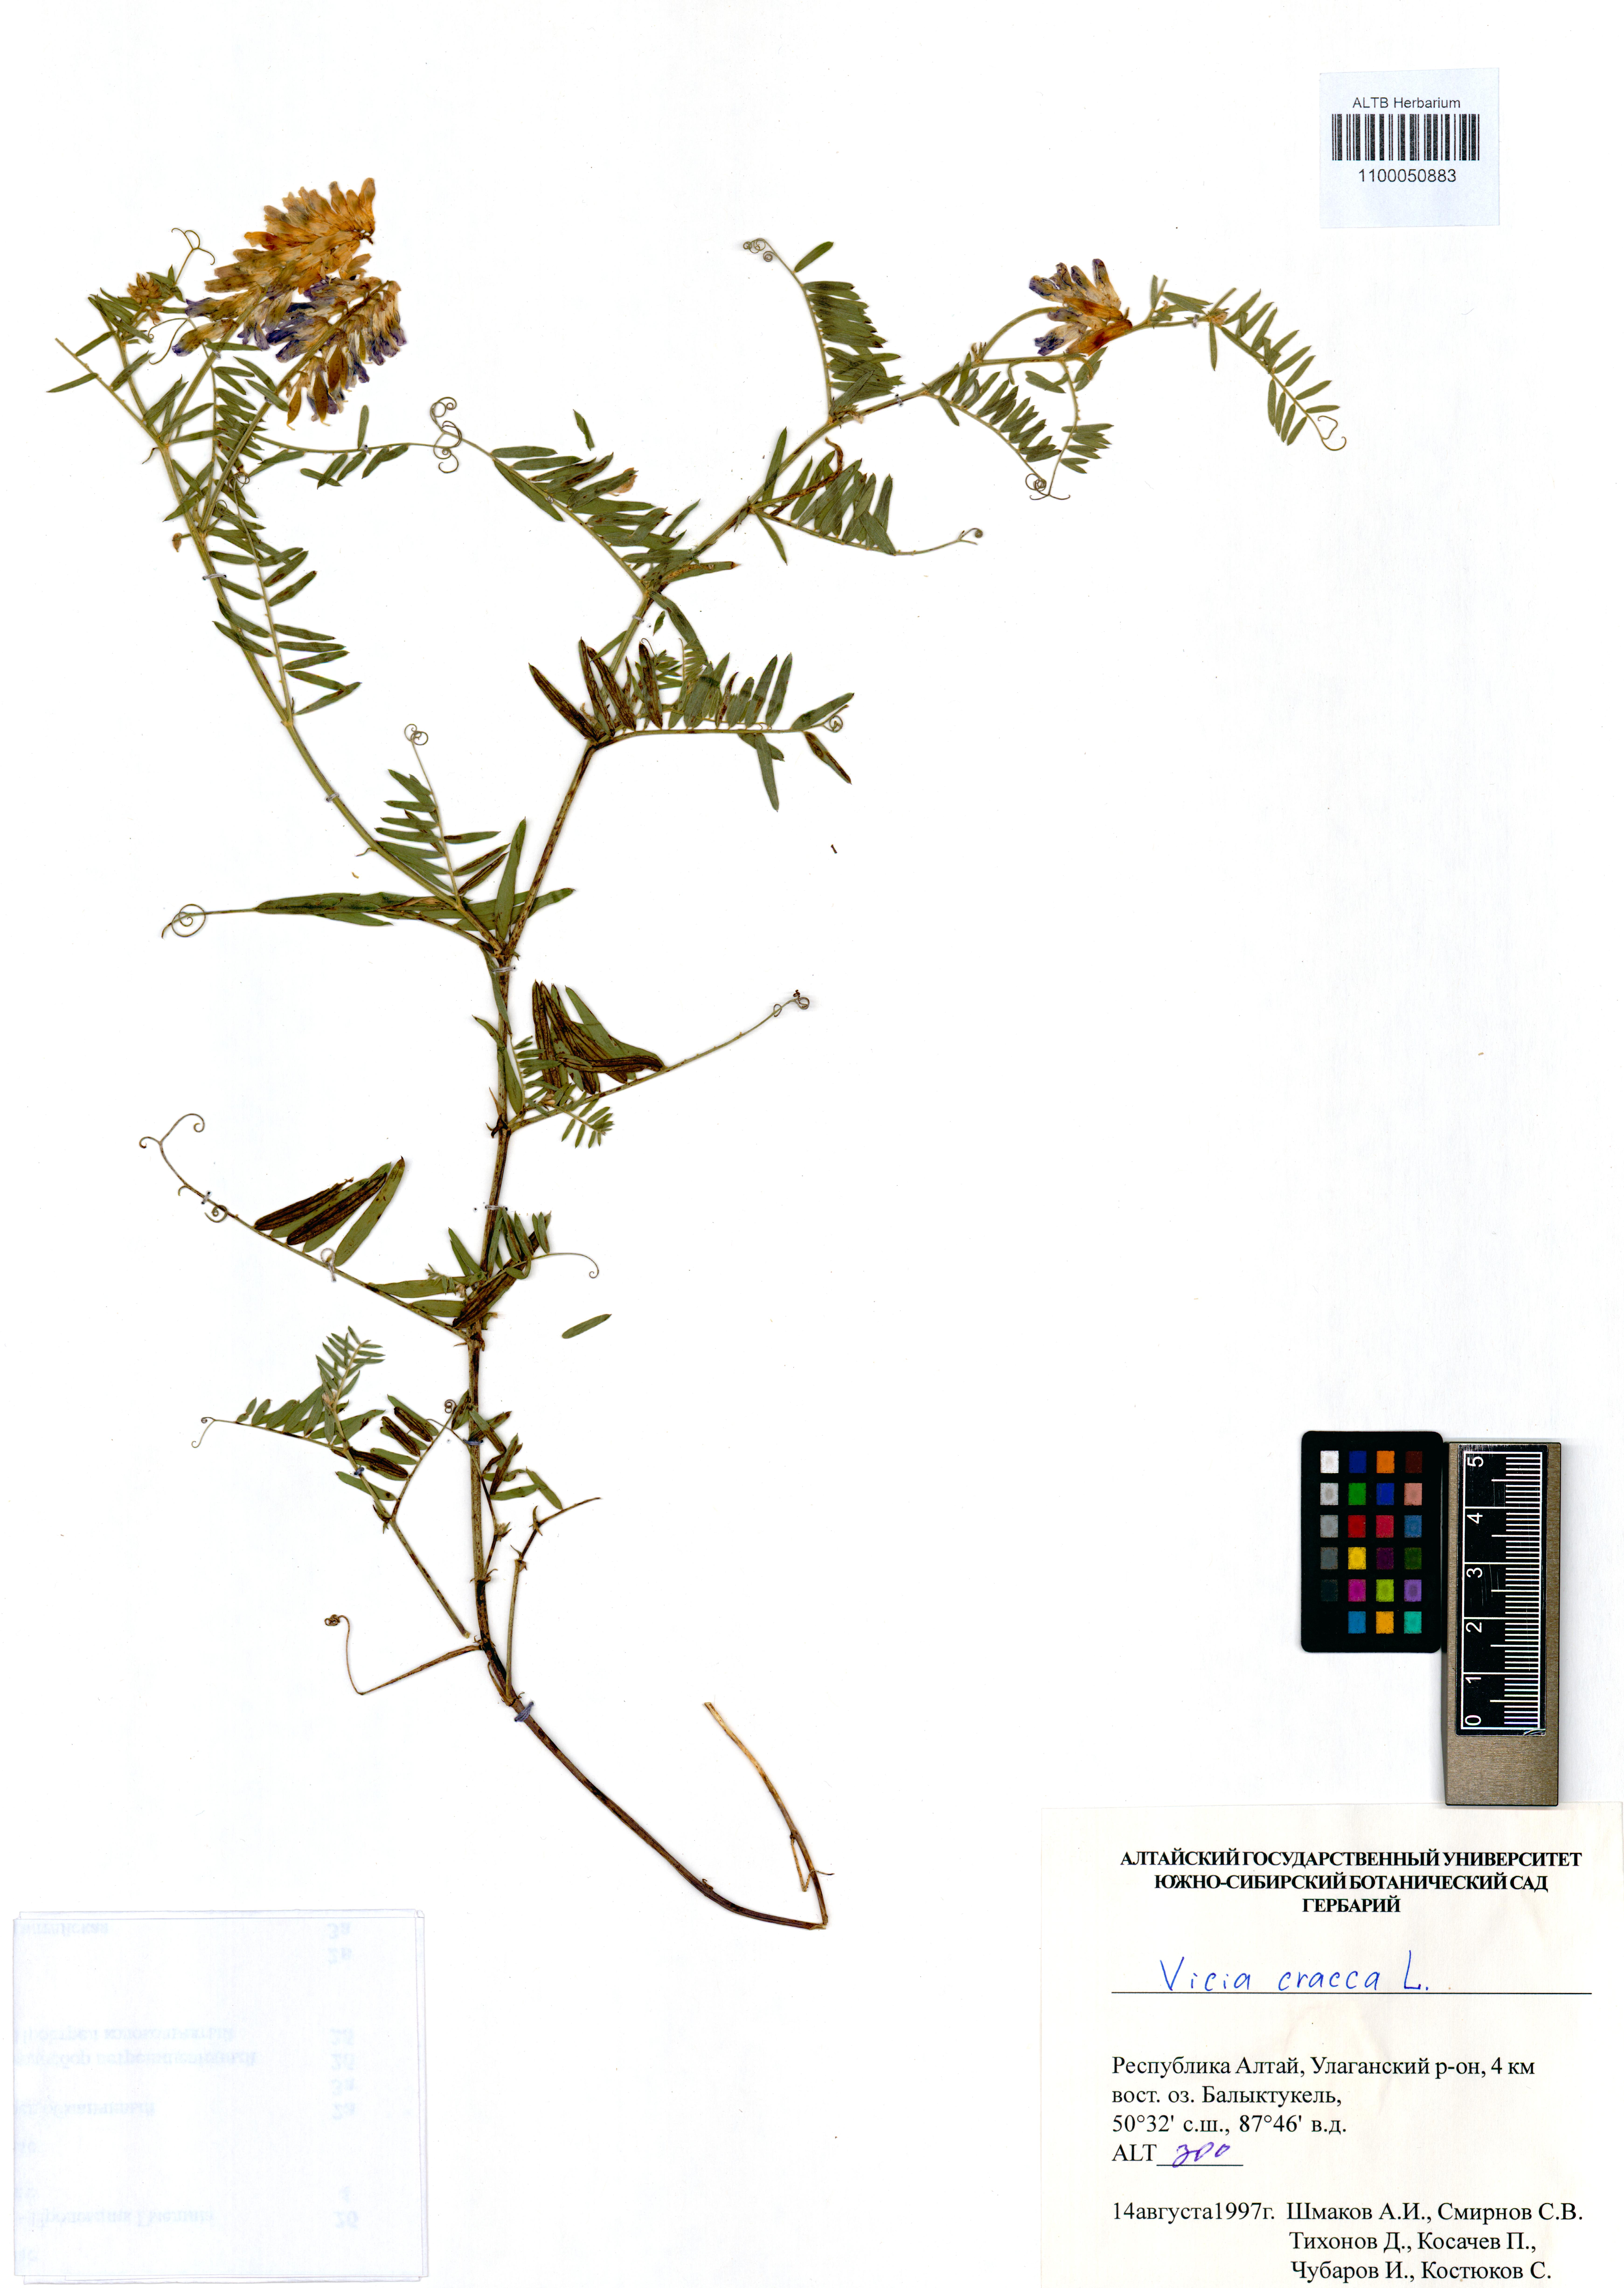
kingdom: Plantae
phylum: Tracheophyta
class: Magnoliopsida
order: Fabales
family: Fabaceae
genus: Vicia
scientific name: Vicia cracca
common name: Bird vetch
